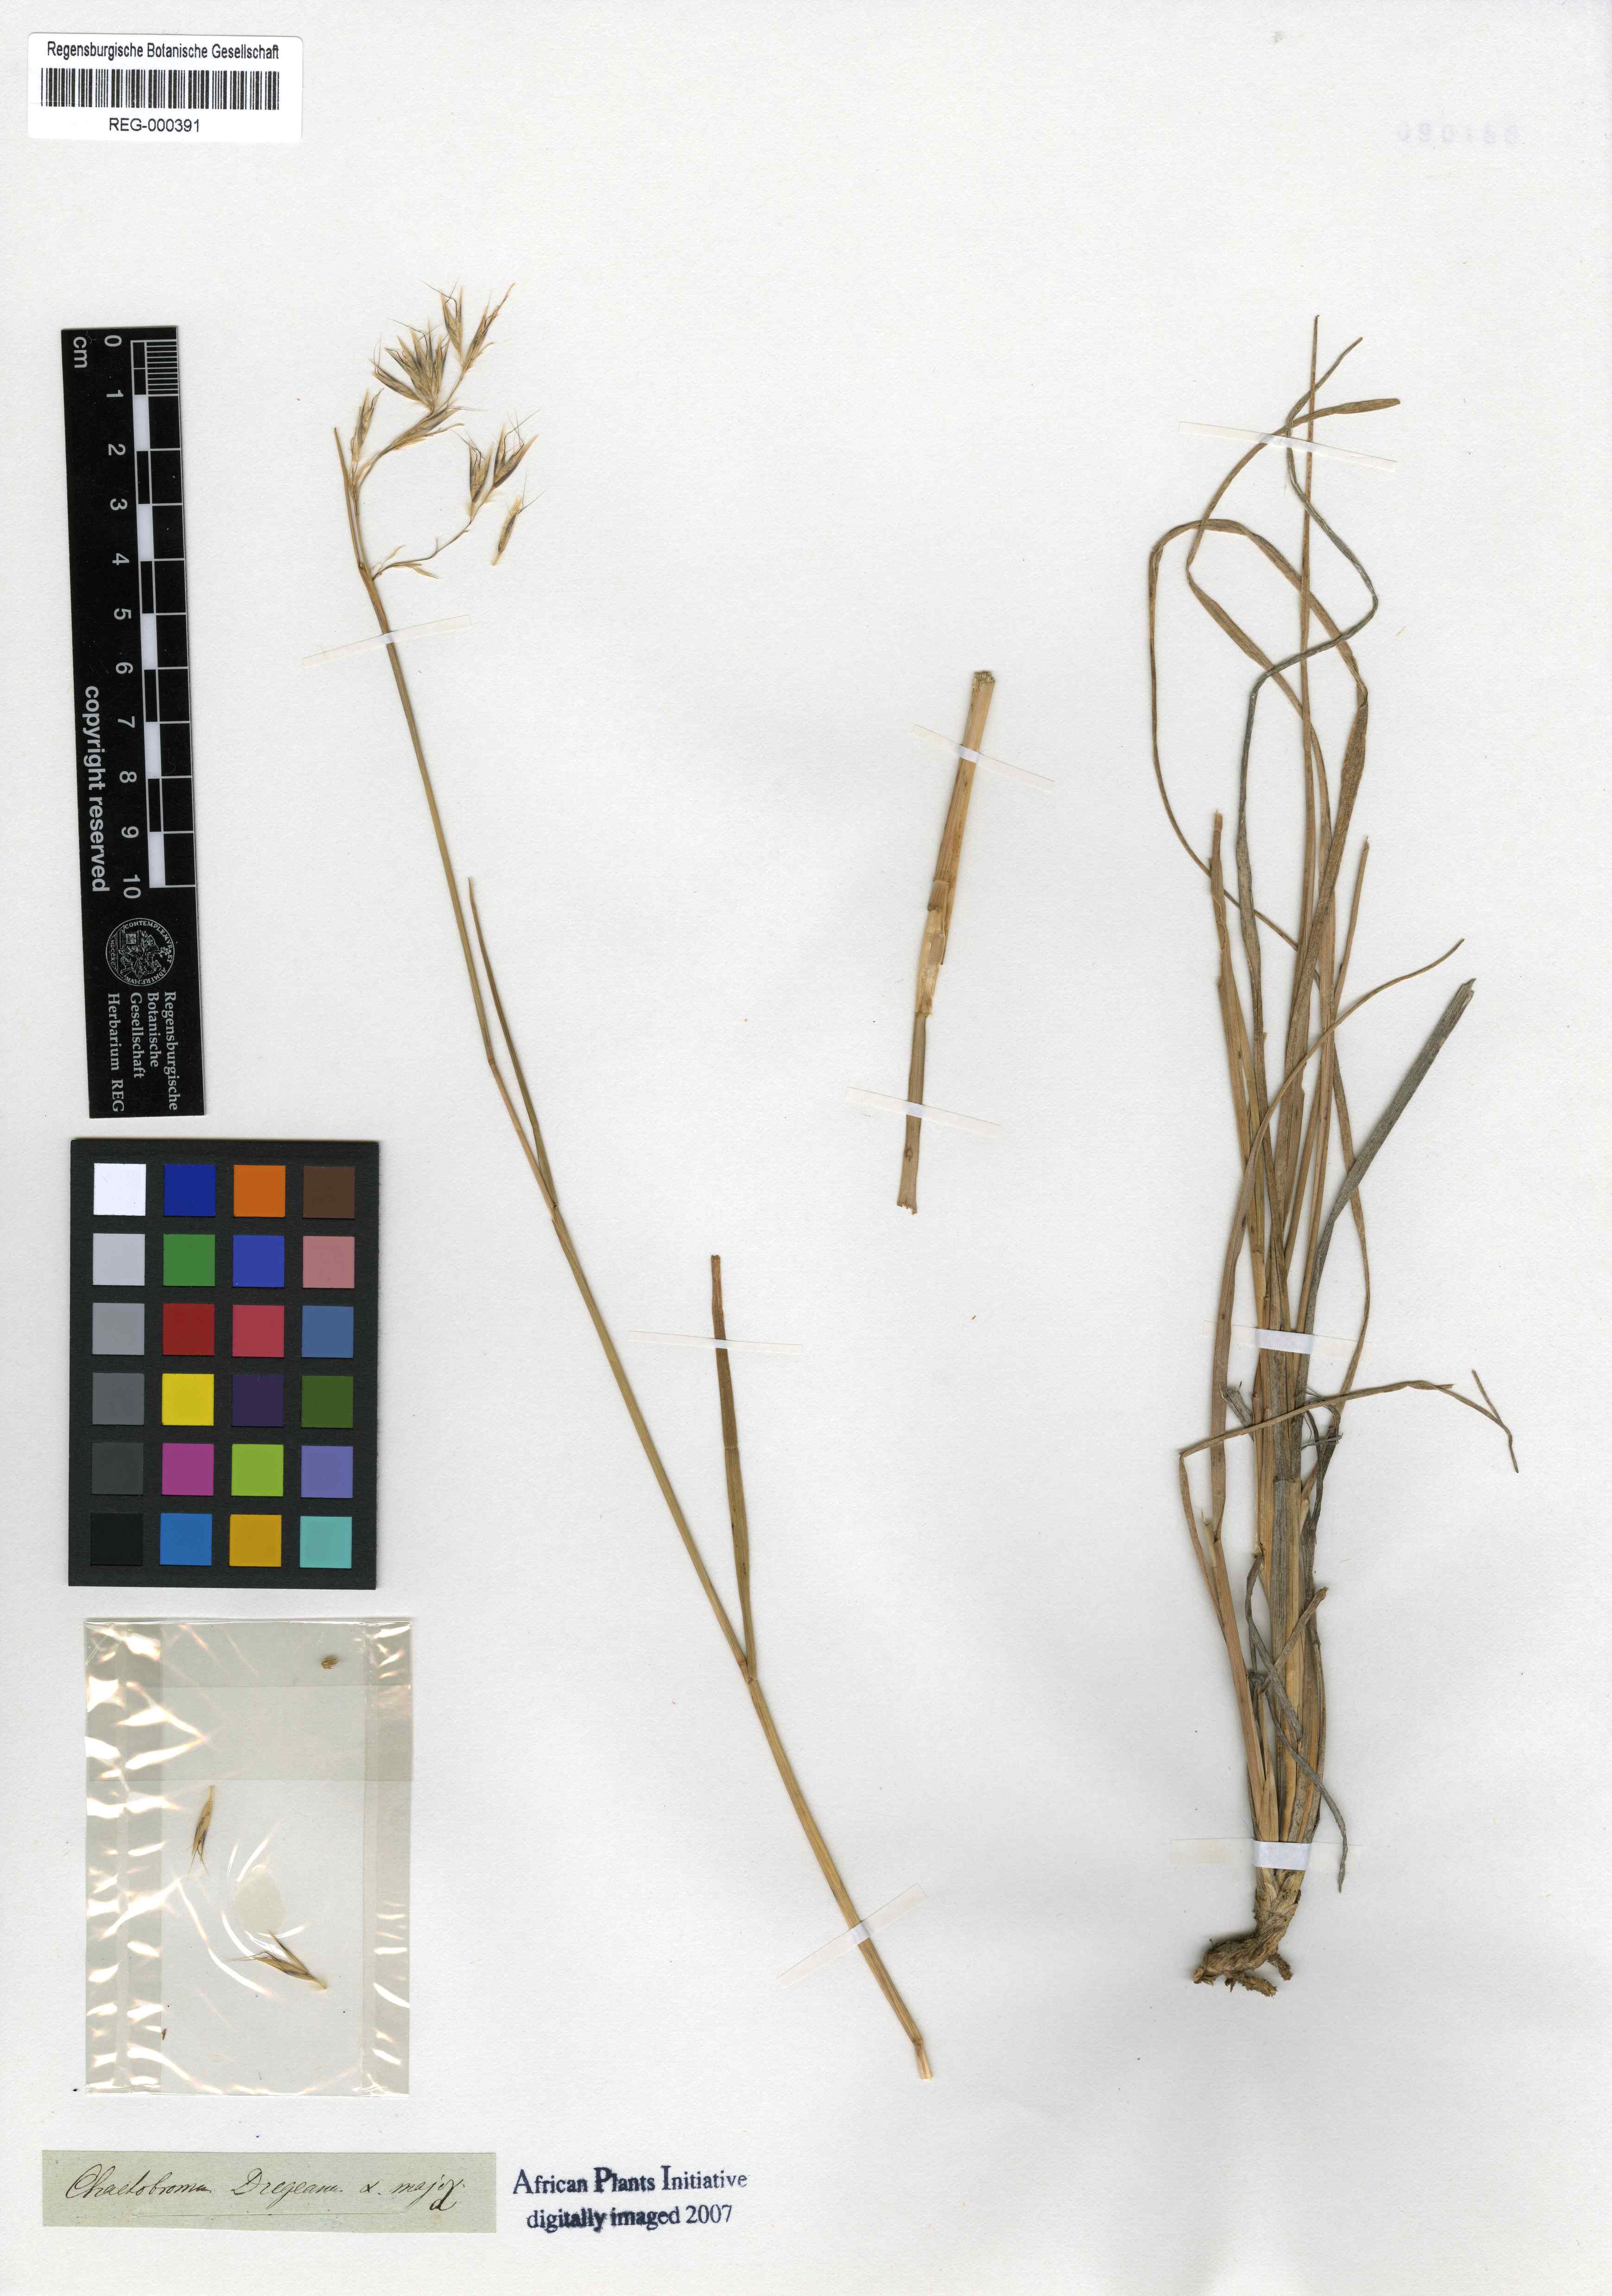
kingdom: Plantae
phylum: Tracheophyta
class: Liliopsida
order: Poales
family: Poaceae
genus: Chaetobromus
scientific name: Chaetobromus involucratus
